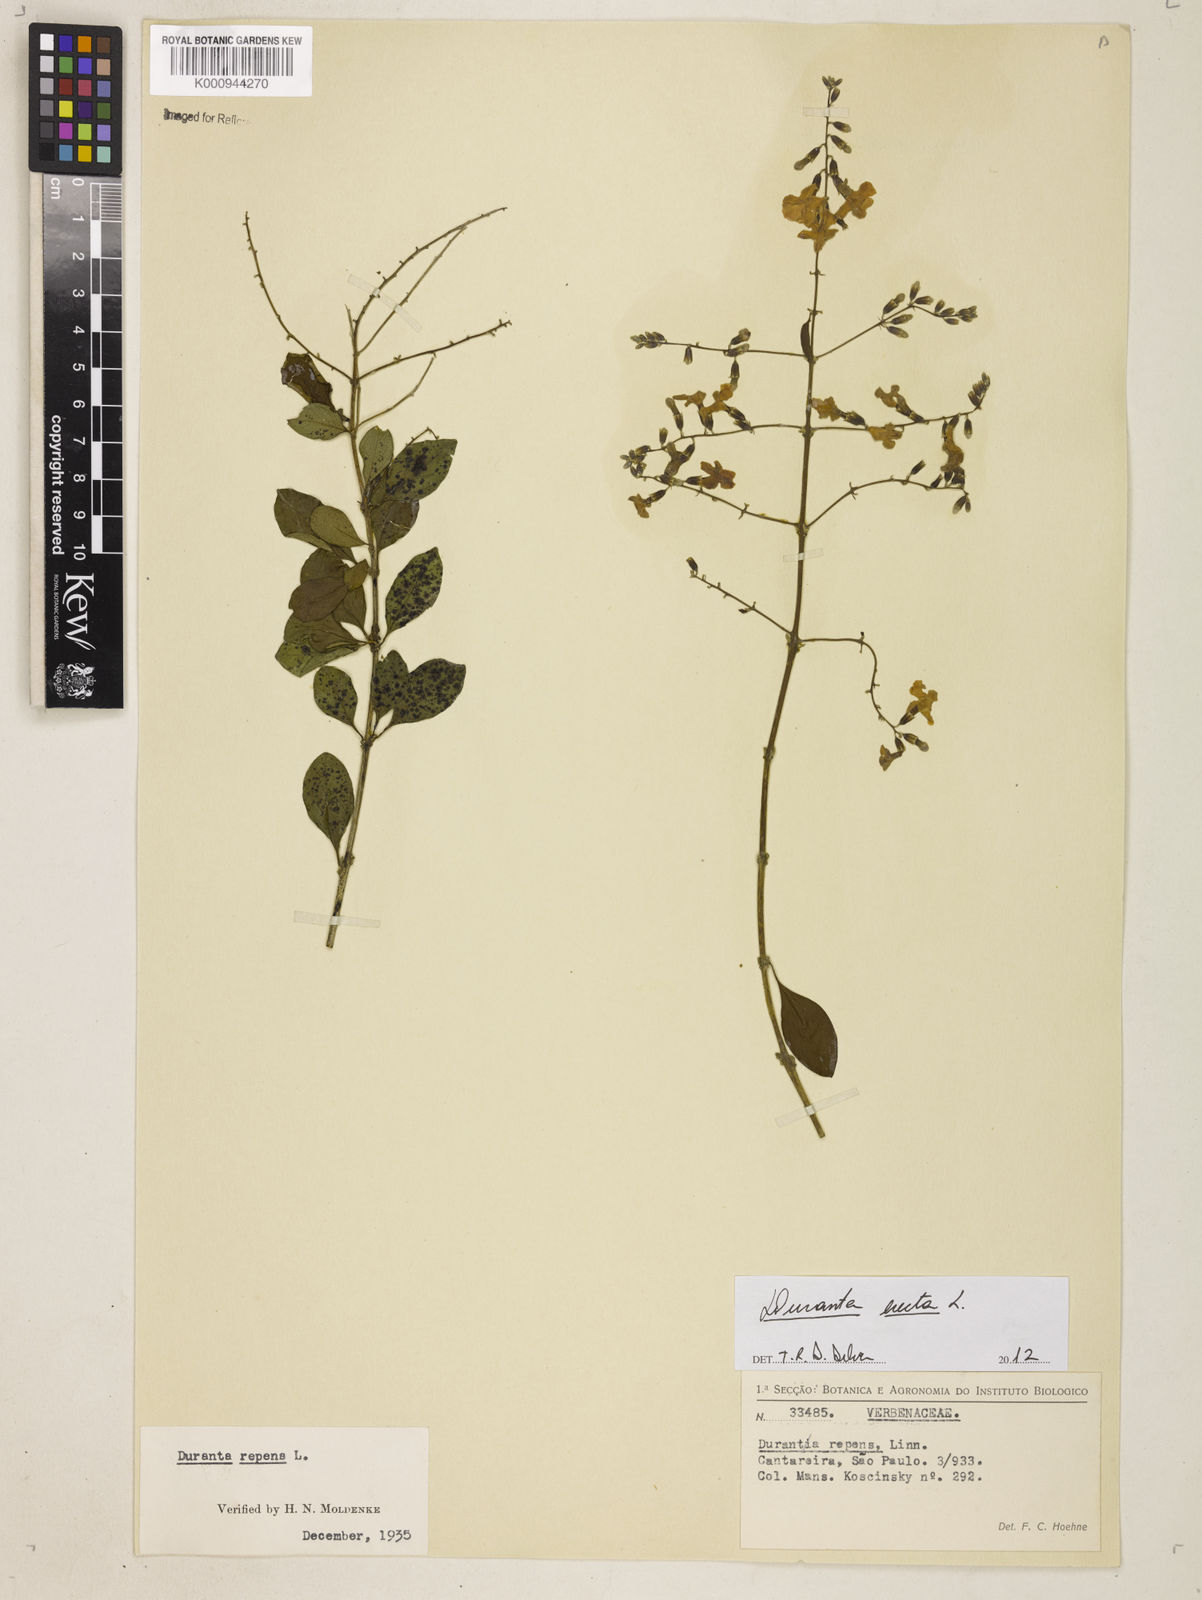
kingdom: Plantae
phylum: Tracheophyta
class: Magnoliopsida
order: Lamiales
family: Verbenaceae
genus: Citharexylum
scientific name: Citharexylum caudatum
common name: Fiddlewood
